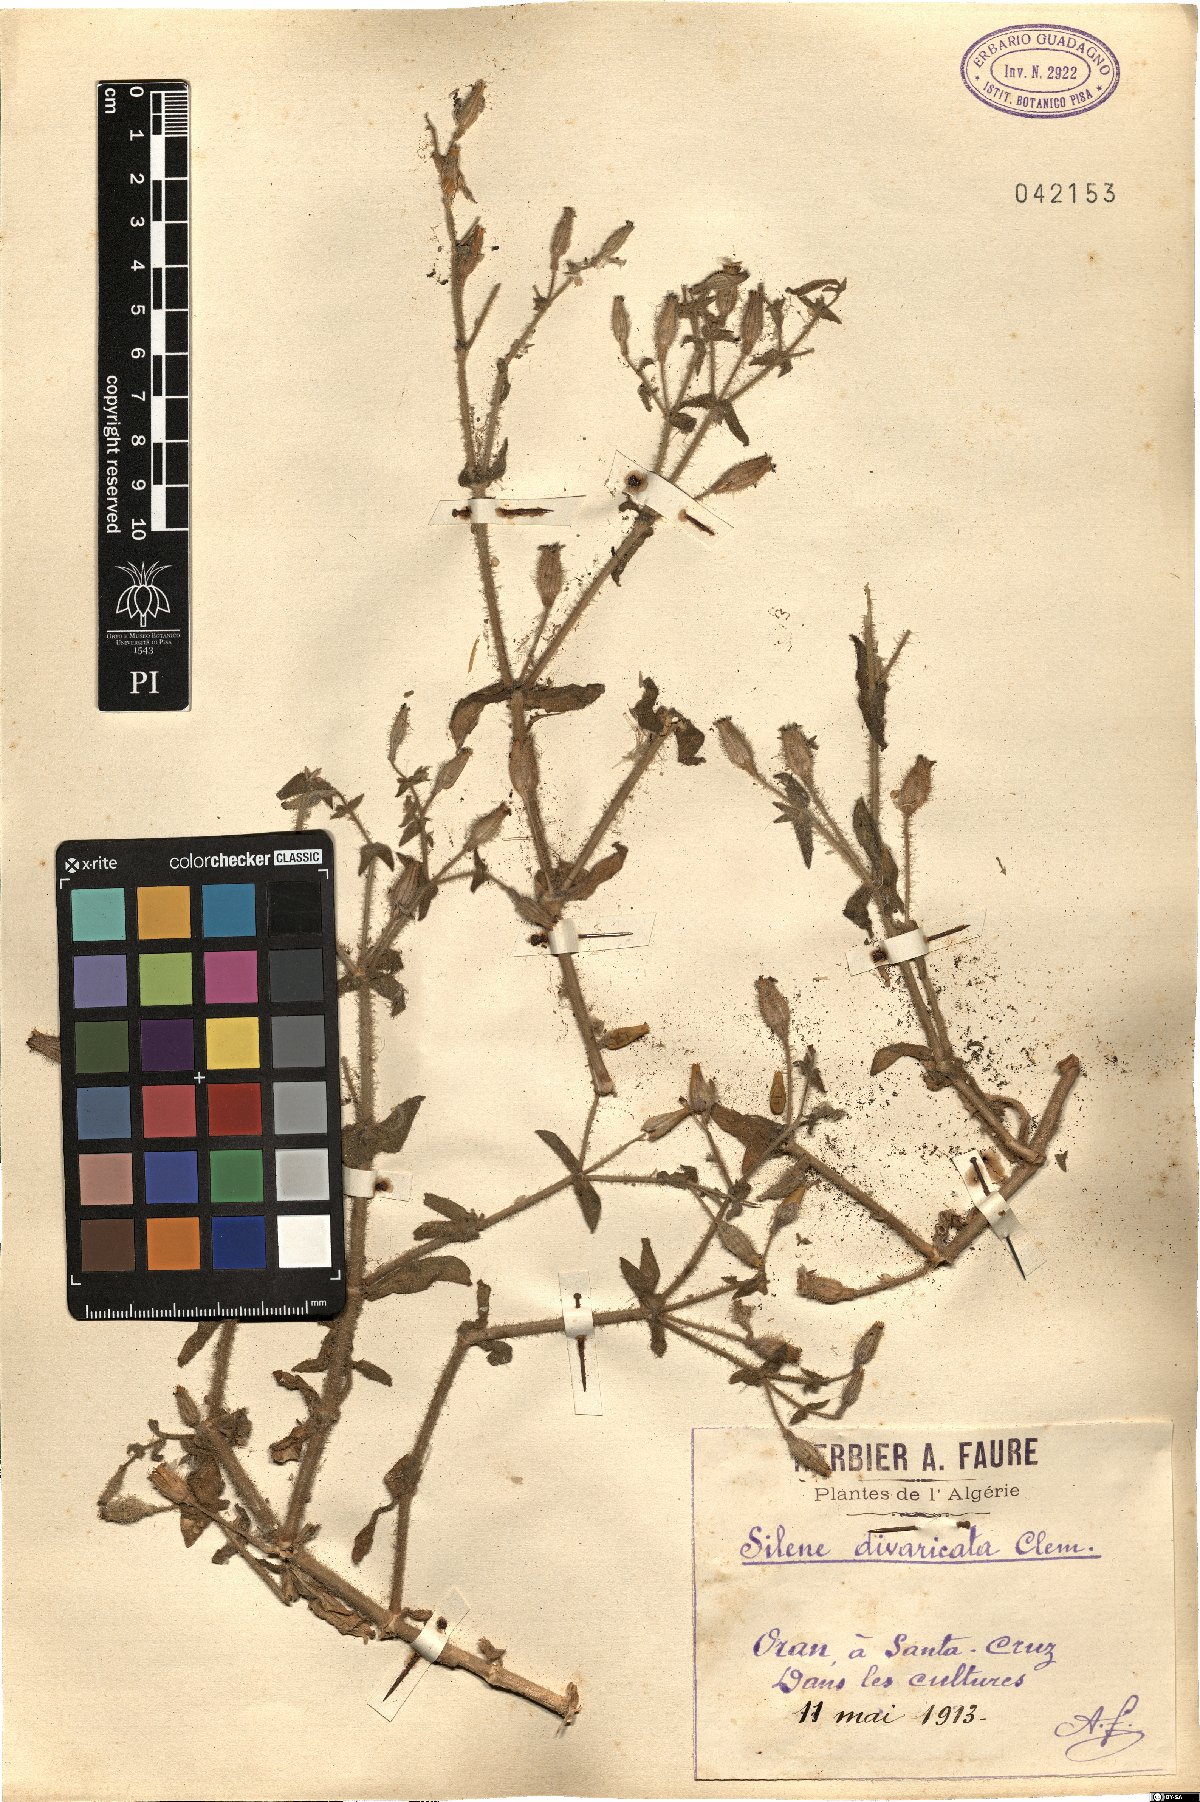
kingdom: Plantae
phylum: Tracheophyta
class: Magnoliopsida
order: Caryophyllales
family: Caryophyllaceae
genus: Silene
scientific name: Silene aellenii
